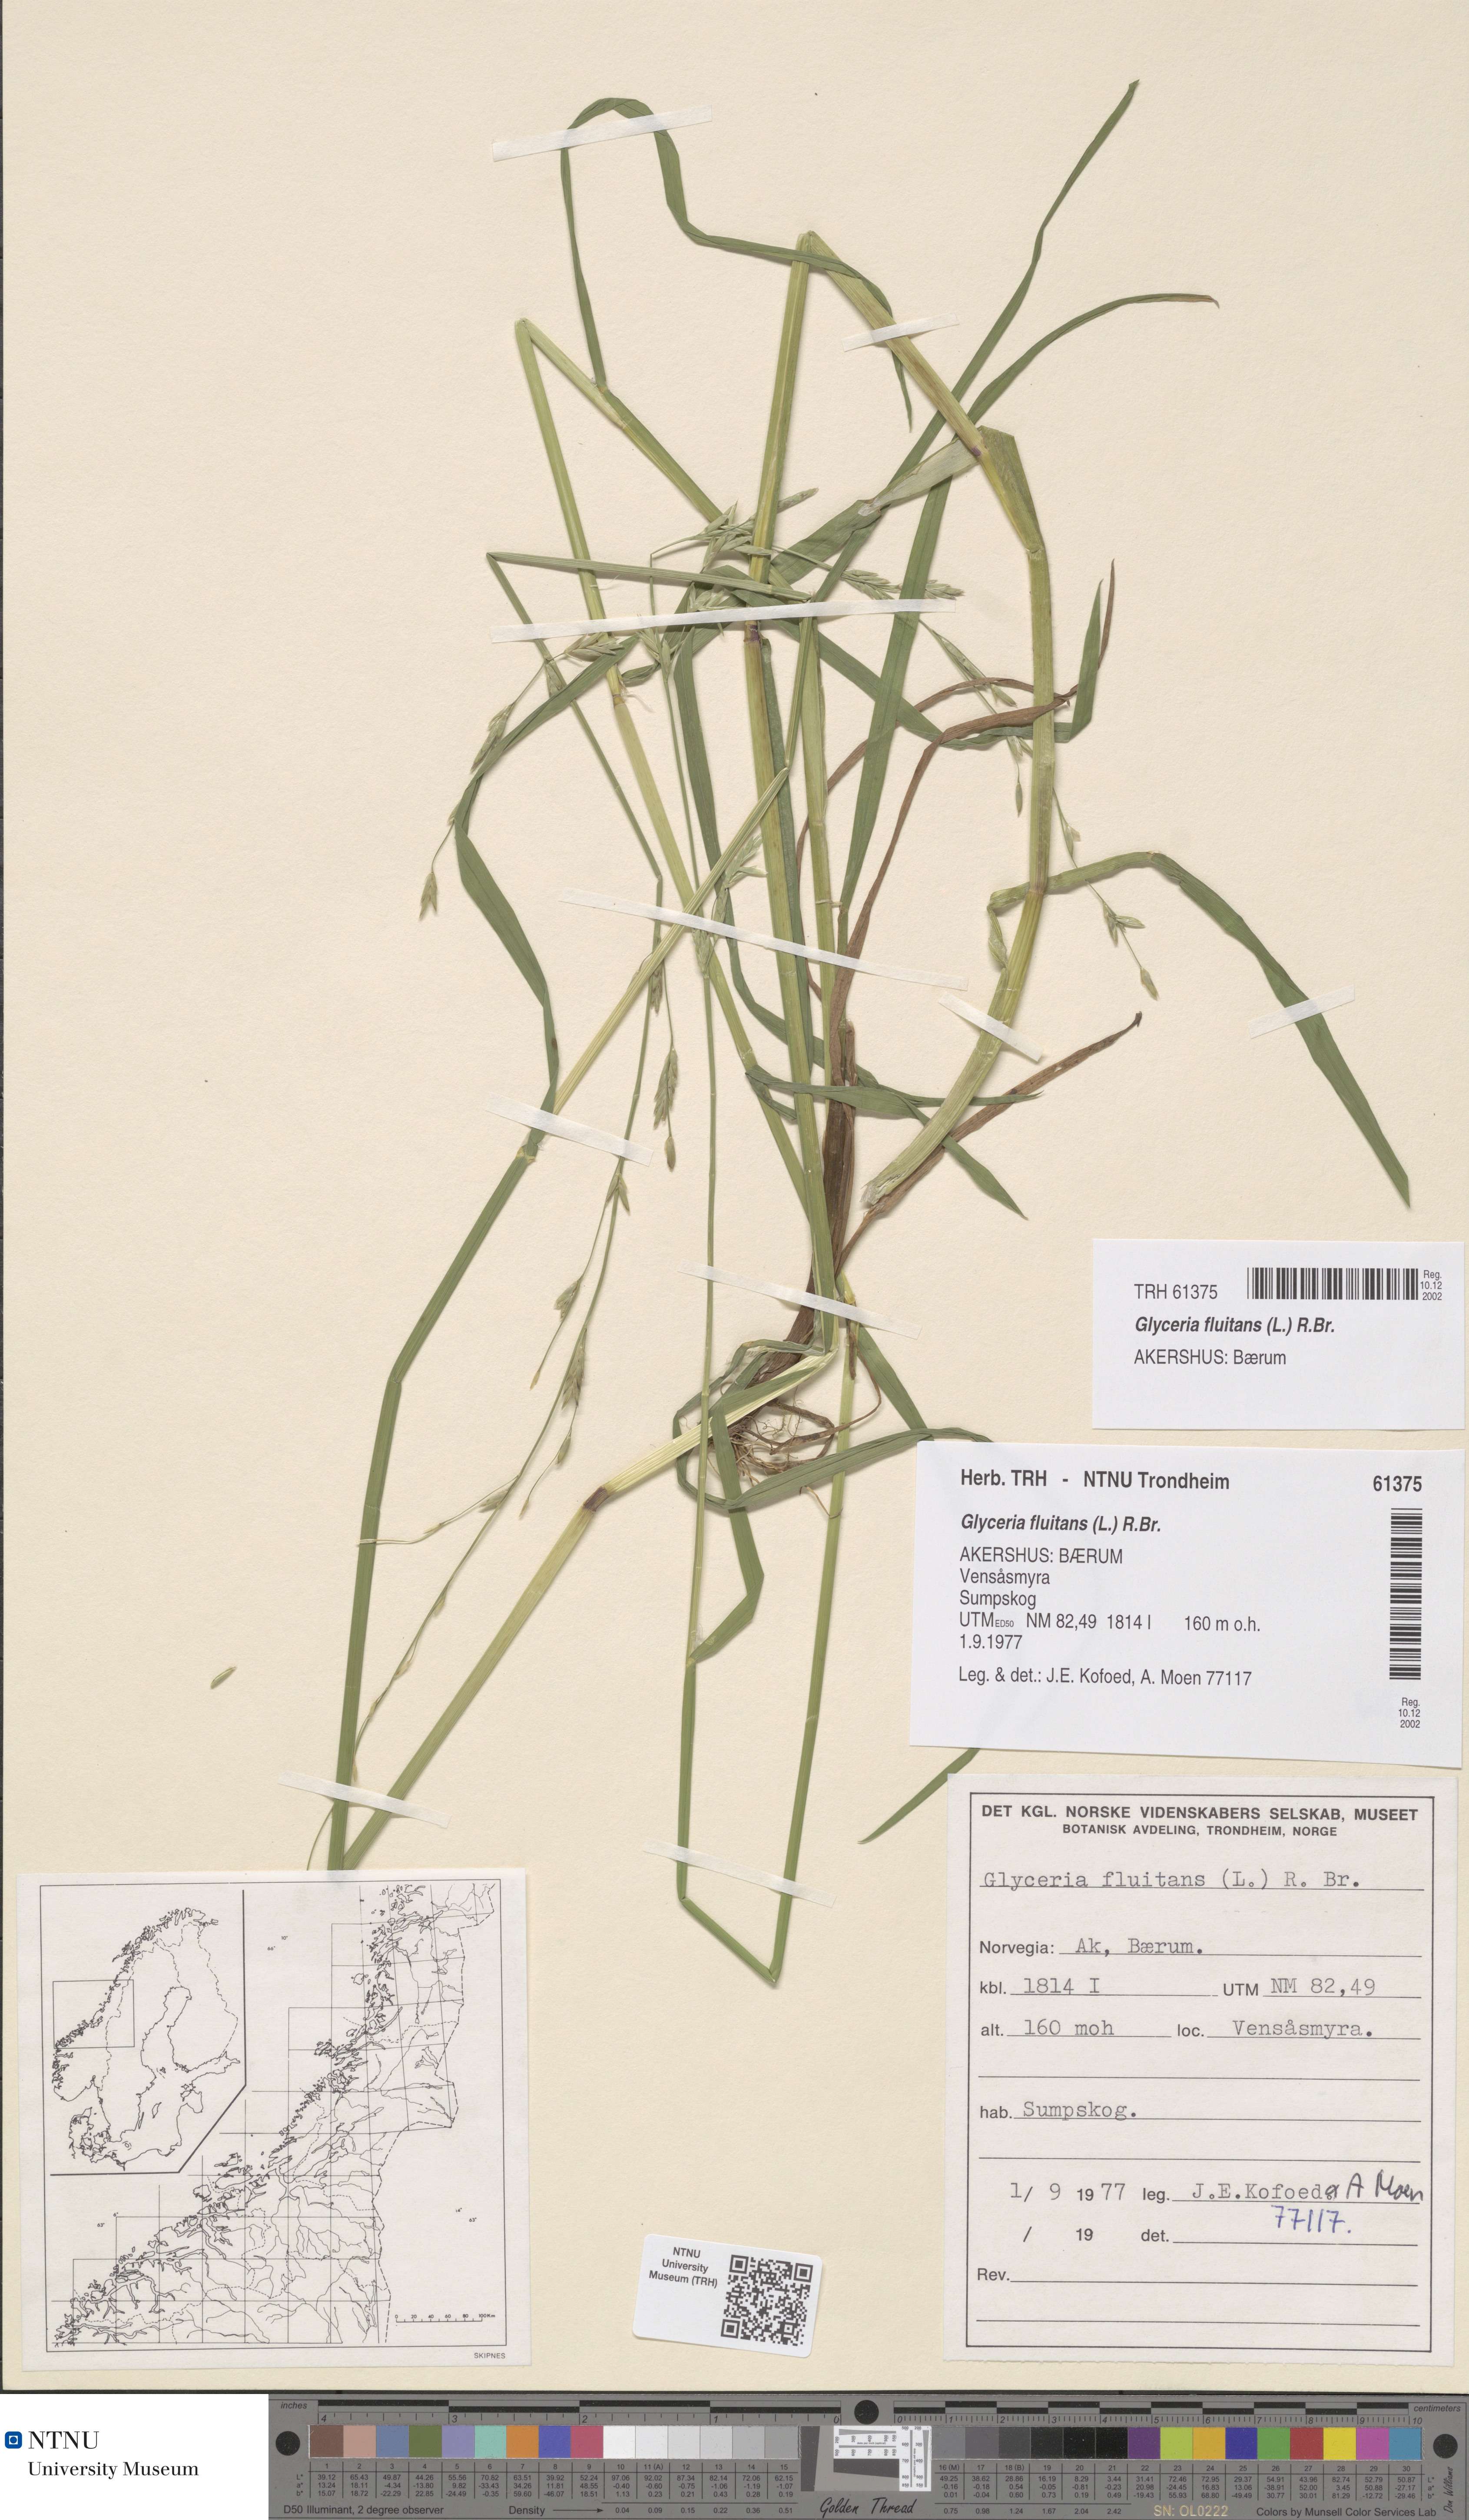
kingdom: Plantae
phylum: Tracheophyta
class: Liliopsida
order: Poales
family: Poaceae
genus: Glyceria
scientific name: Glyceria fluitans
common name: Floating sweet-grass
